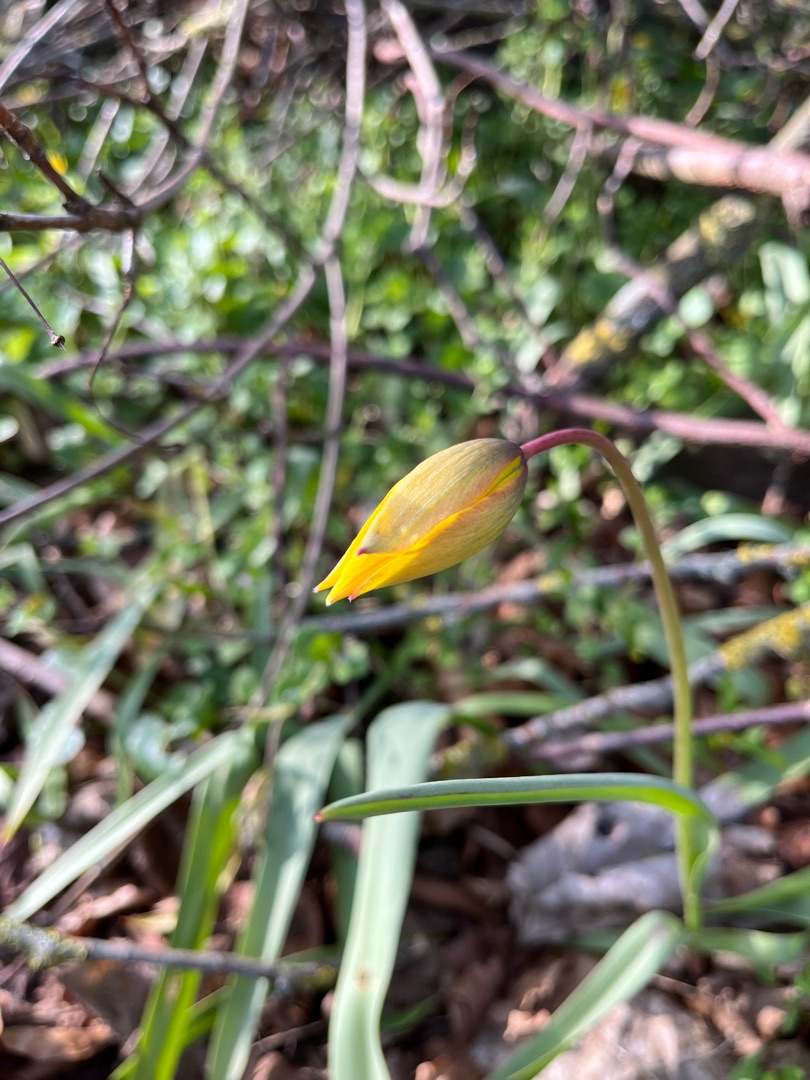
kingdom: Plantae
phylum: Tracheophyta
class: Liliopsida
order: Liliales
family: Liliaceae
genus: Tulipa
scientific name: Tulipa sylvestris
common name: Vild tulipan
